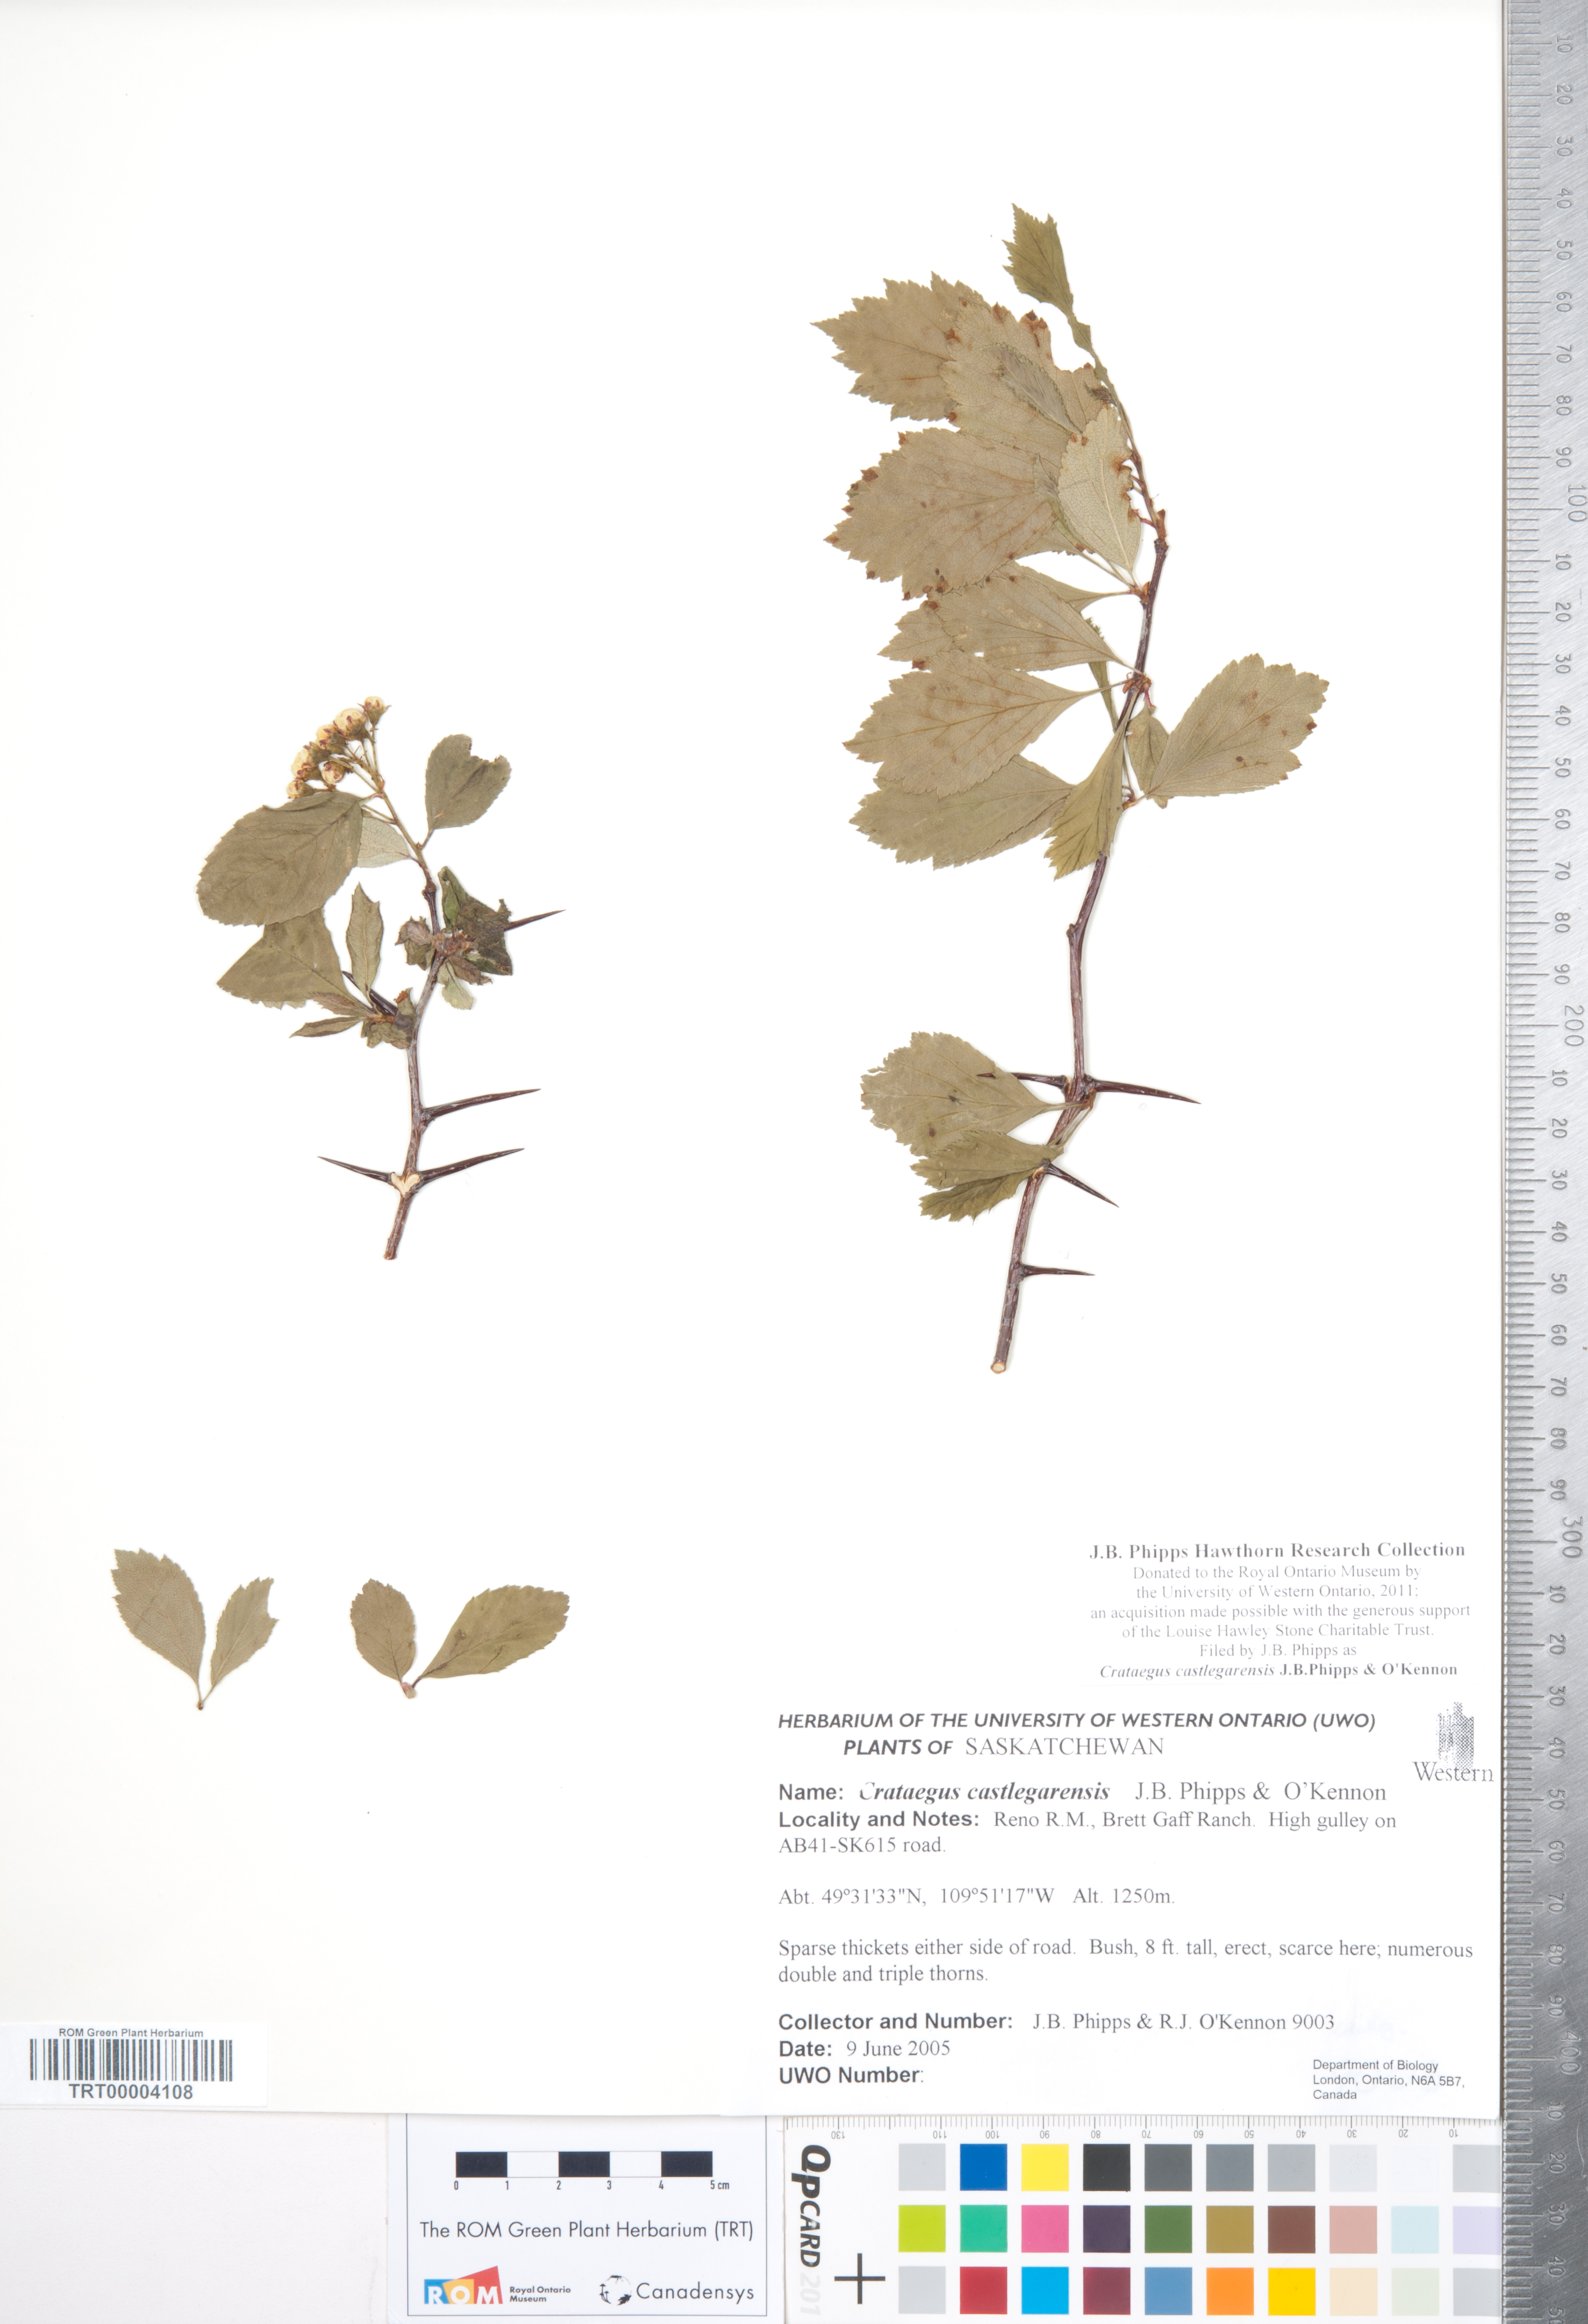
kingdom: Plantae
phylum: Tracheophyta
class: Magnoliopsida
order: Rosales
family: Rosaceae
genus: Crataegus
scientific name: Crataegus castlegarensis
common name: Castlegar hawthorn
